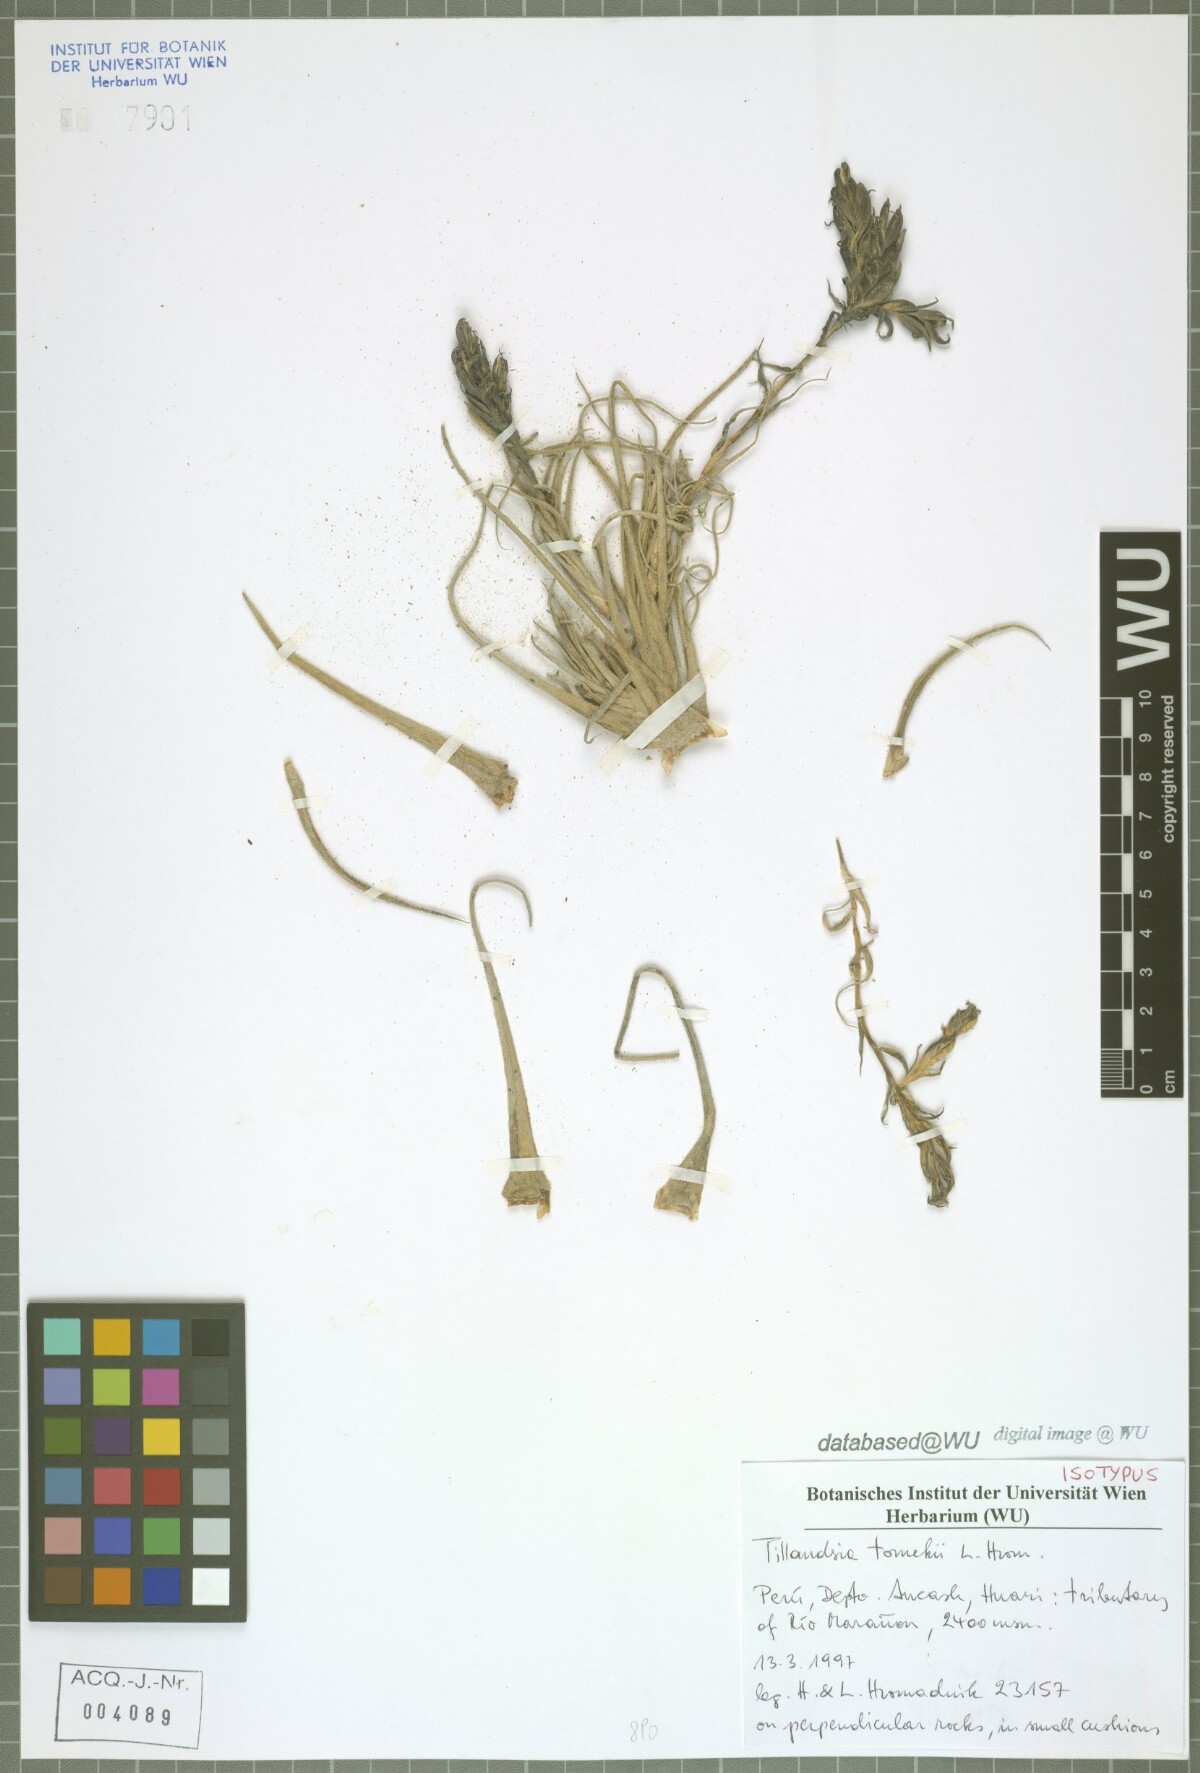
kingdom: Plantae
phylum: Tracheophyta
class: Liliopsida
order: Poales
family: Bromeliaceae
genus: Tillandsia
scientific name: Tillandsia tomekii
